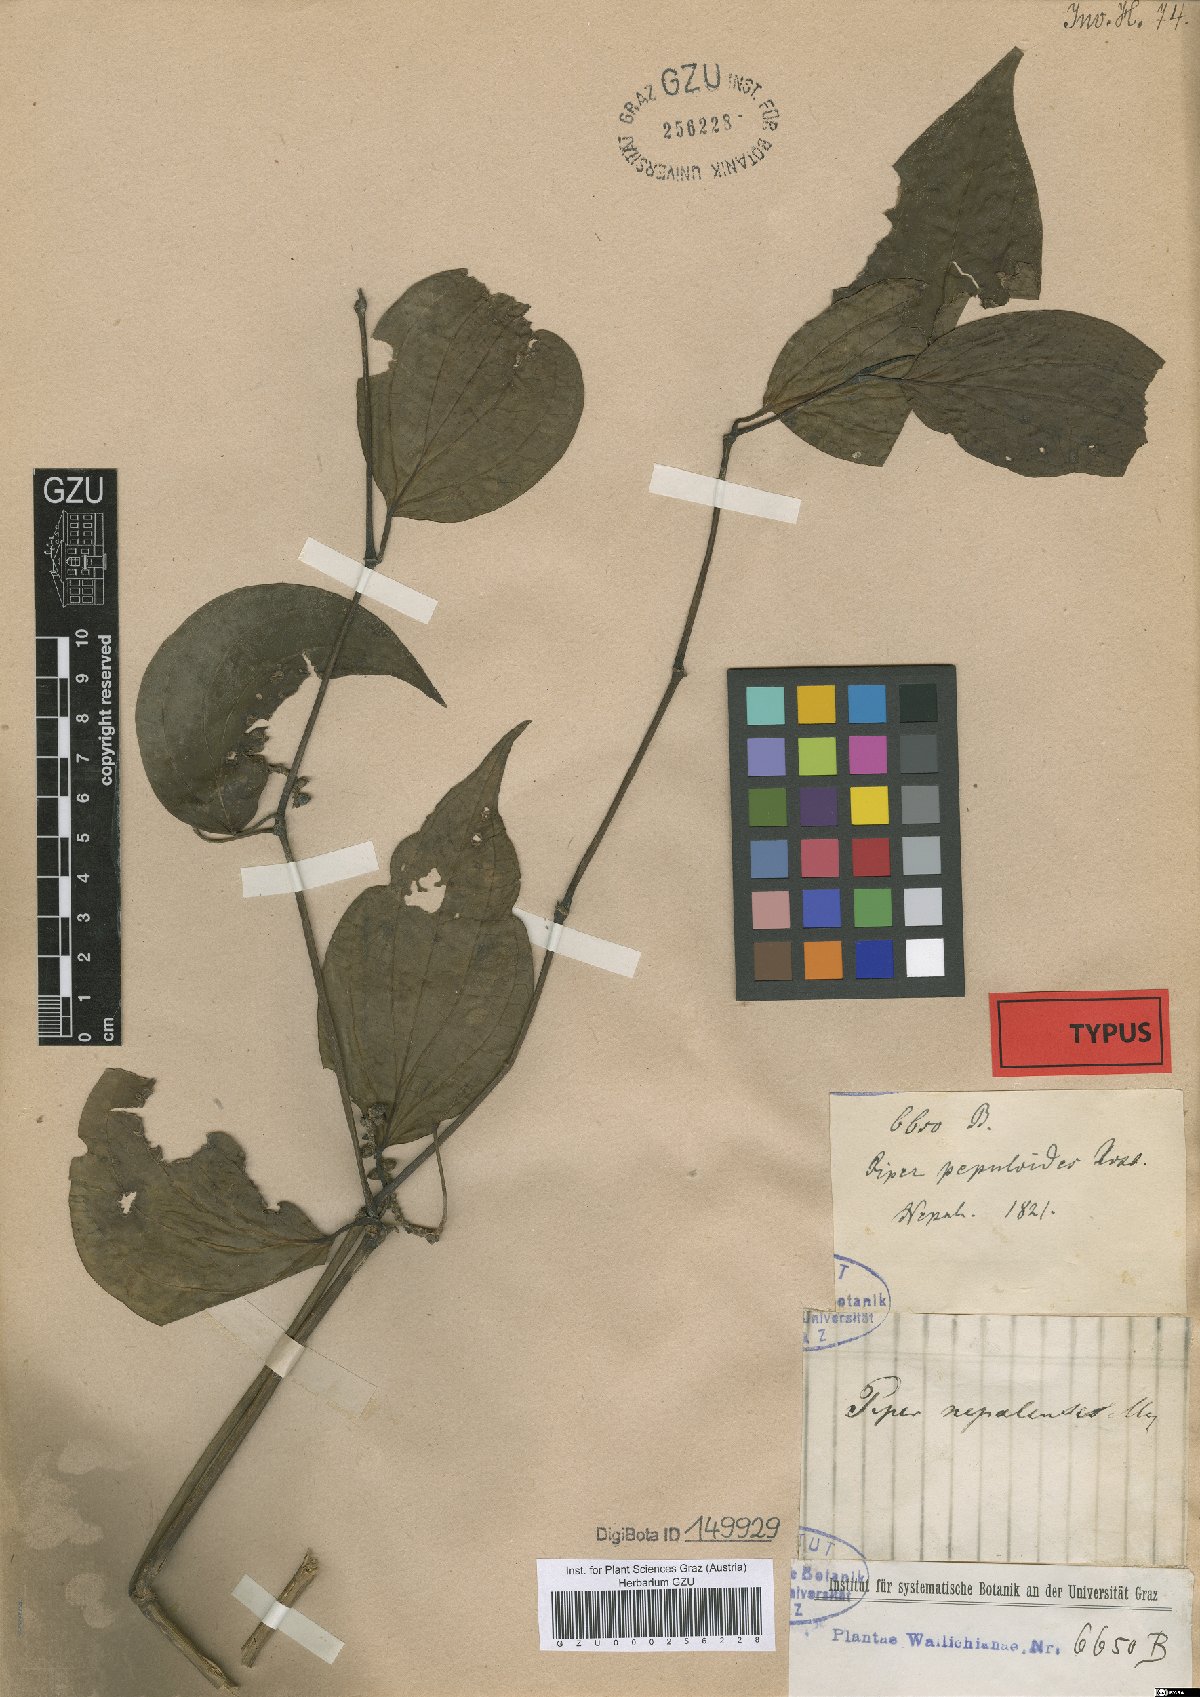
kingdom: Plantae
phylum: Tracheophyta
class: Magnoliopsida
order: Piperales
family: Piperaceae
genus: Piper
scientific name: Piper suipigua
